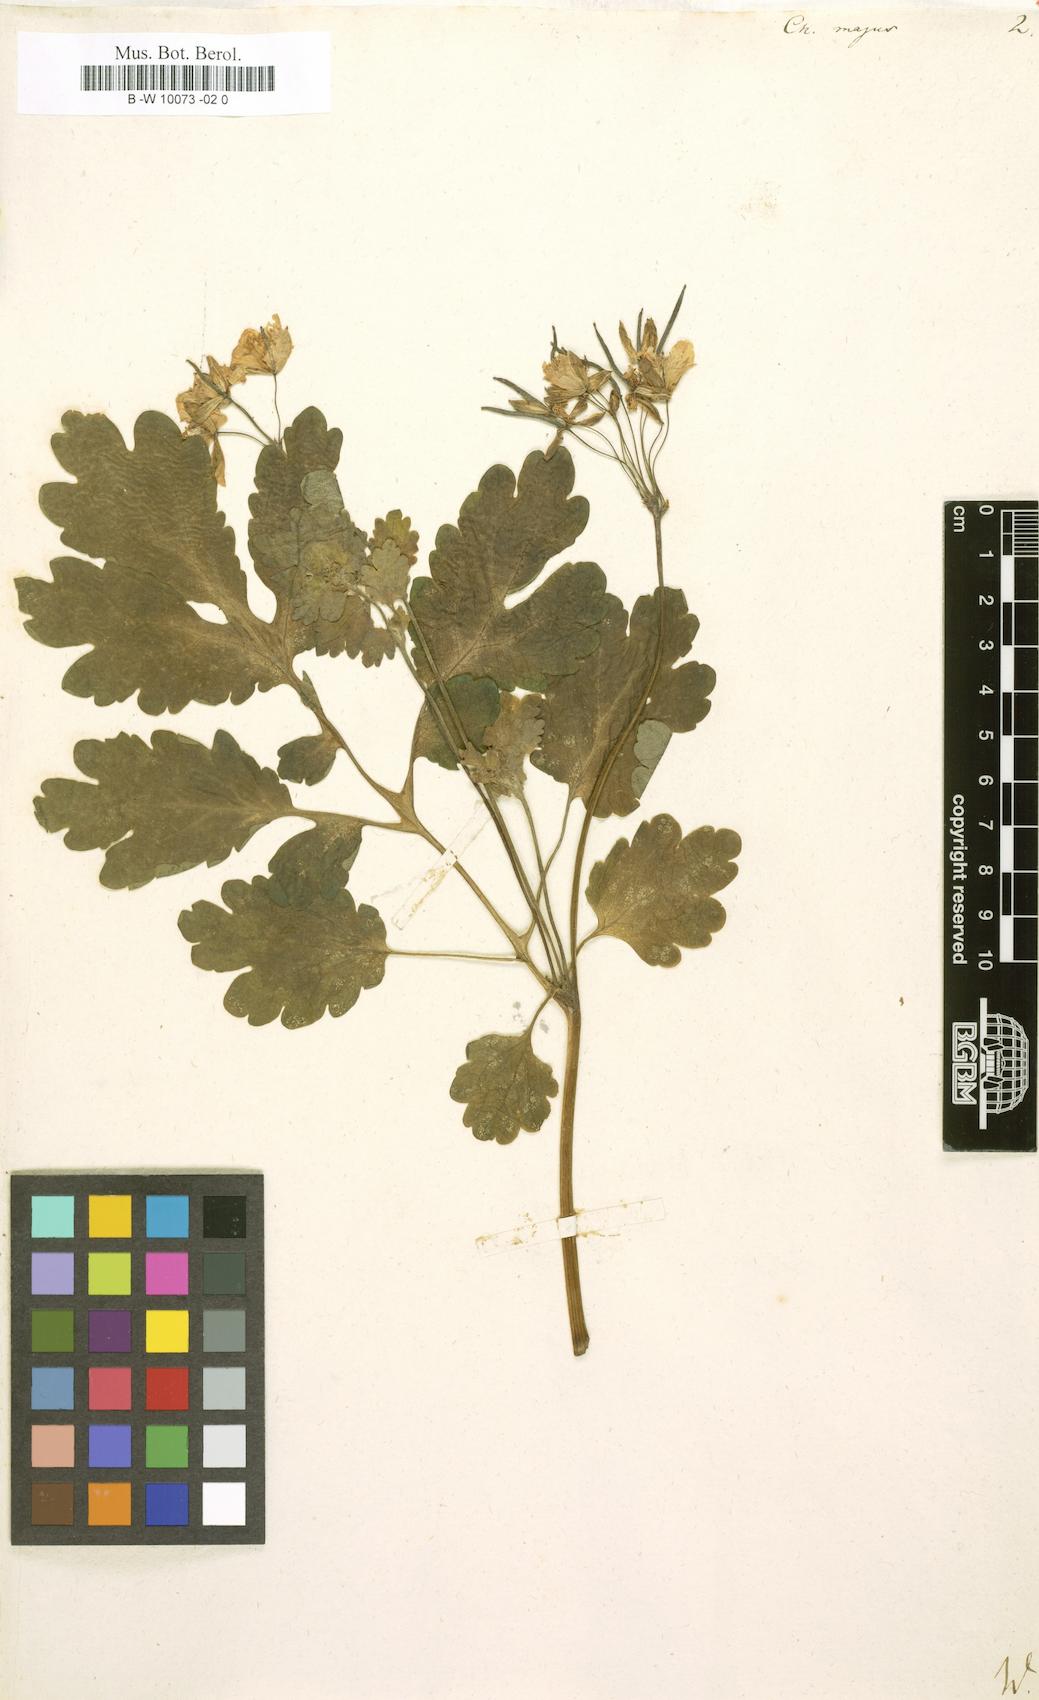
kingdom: Plantae
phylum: Tracheophyta
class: Magnoliopsida
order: Ranunculales
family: Papaveraceae
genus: Chelidonium
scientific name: Chelidonium majus
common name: Greater celandine
